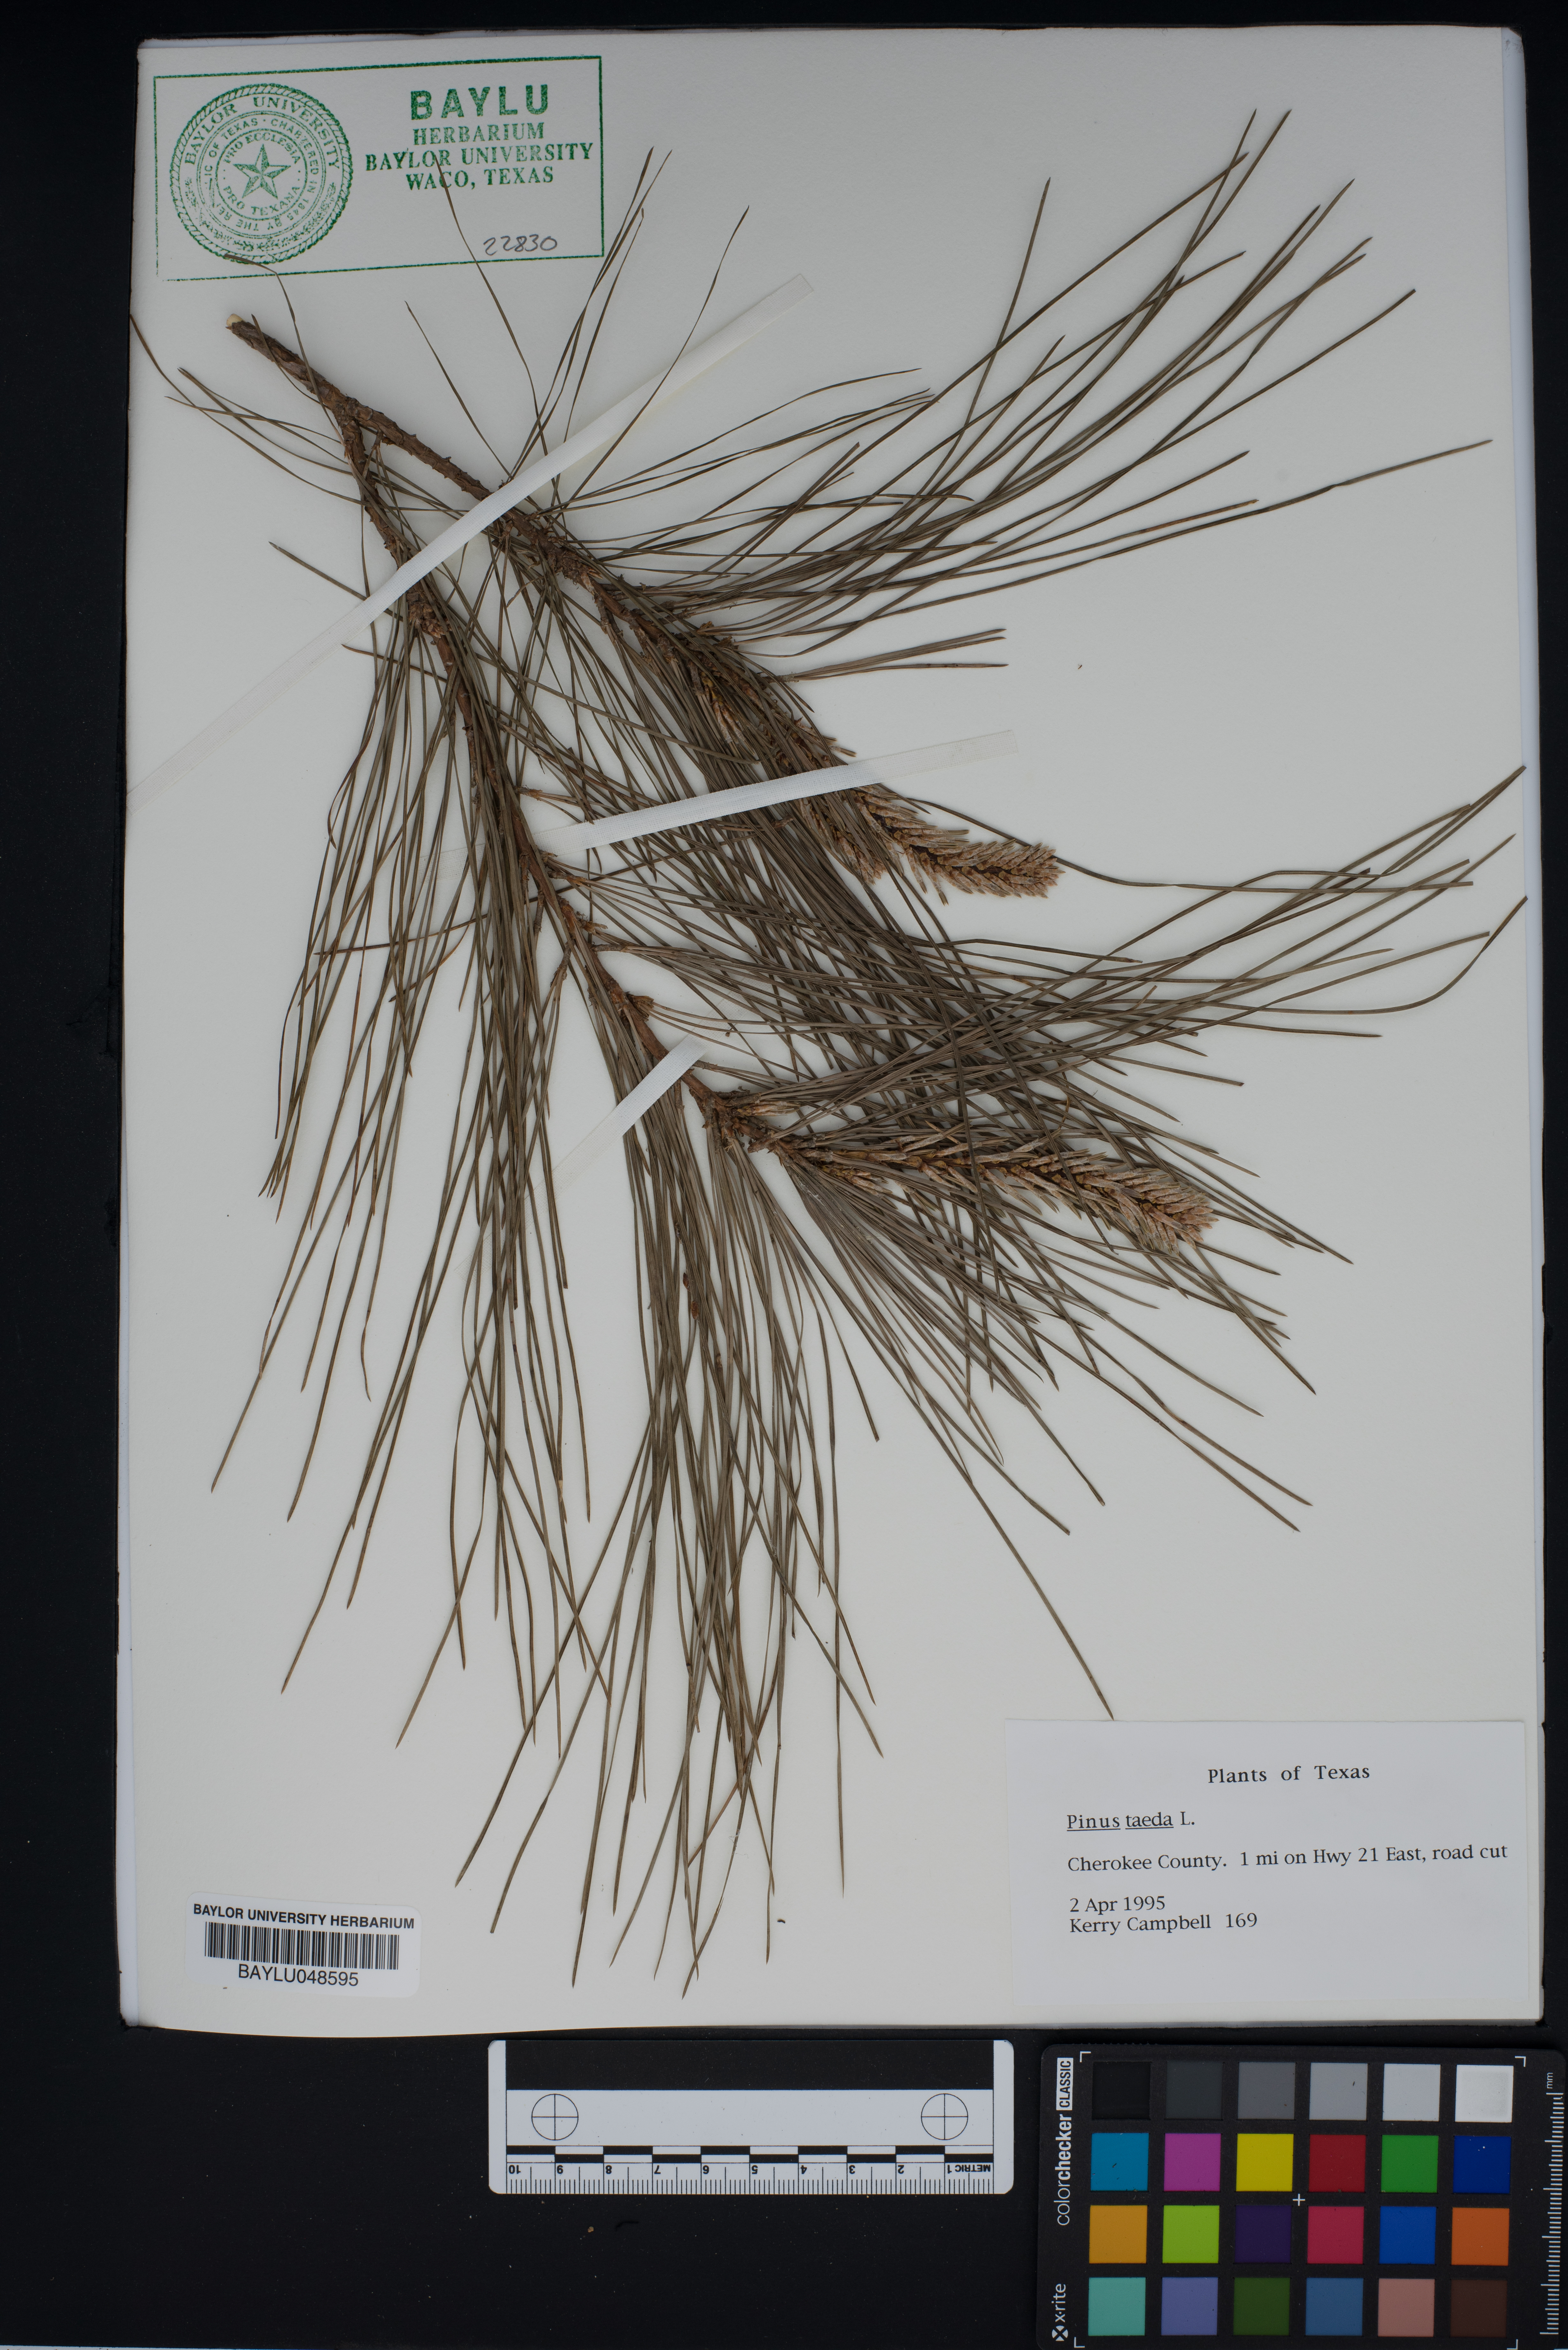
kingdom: Plantae
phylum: Tracheophyta
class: Pinopsida
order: Pinales
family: Pinaceae
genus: Pinus
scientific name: Pinus taeda
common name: Loblolly pine
